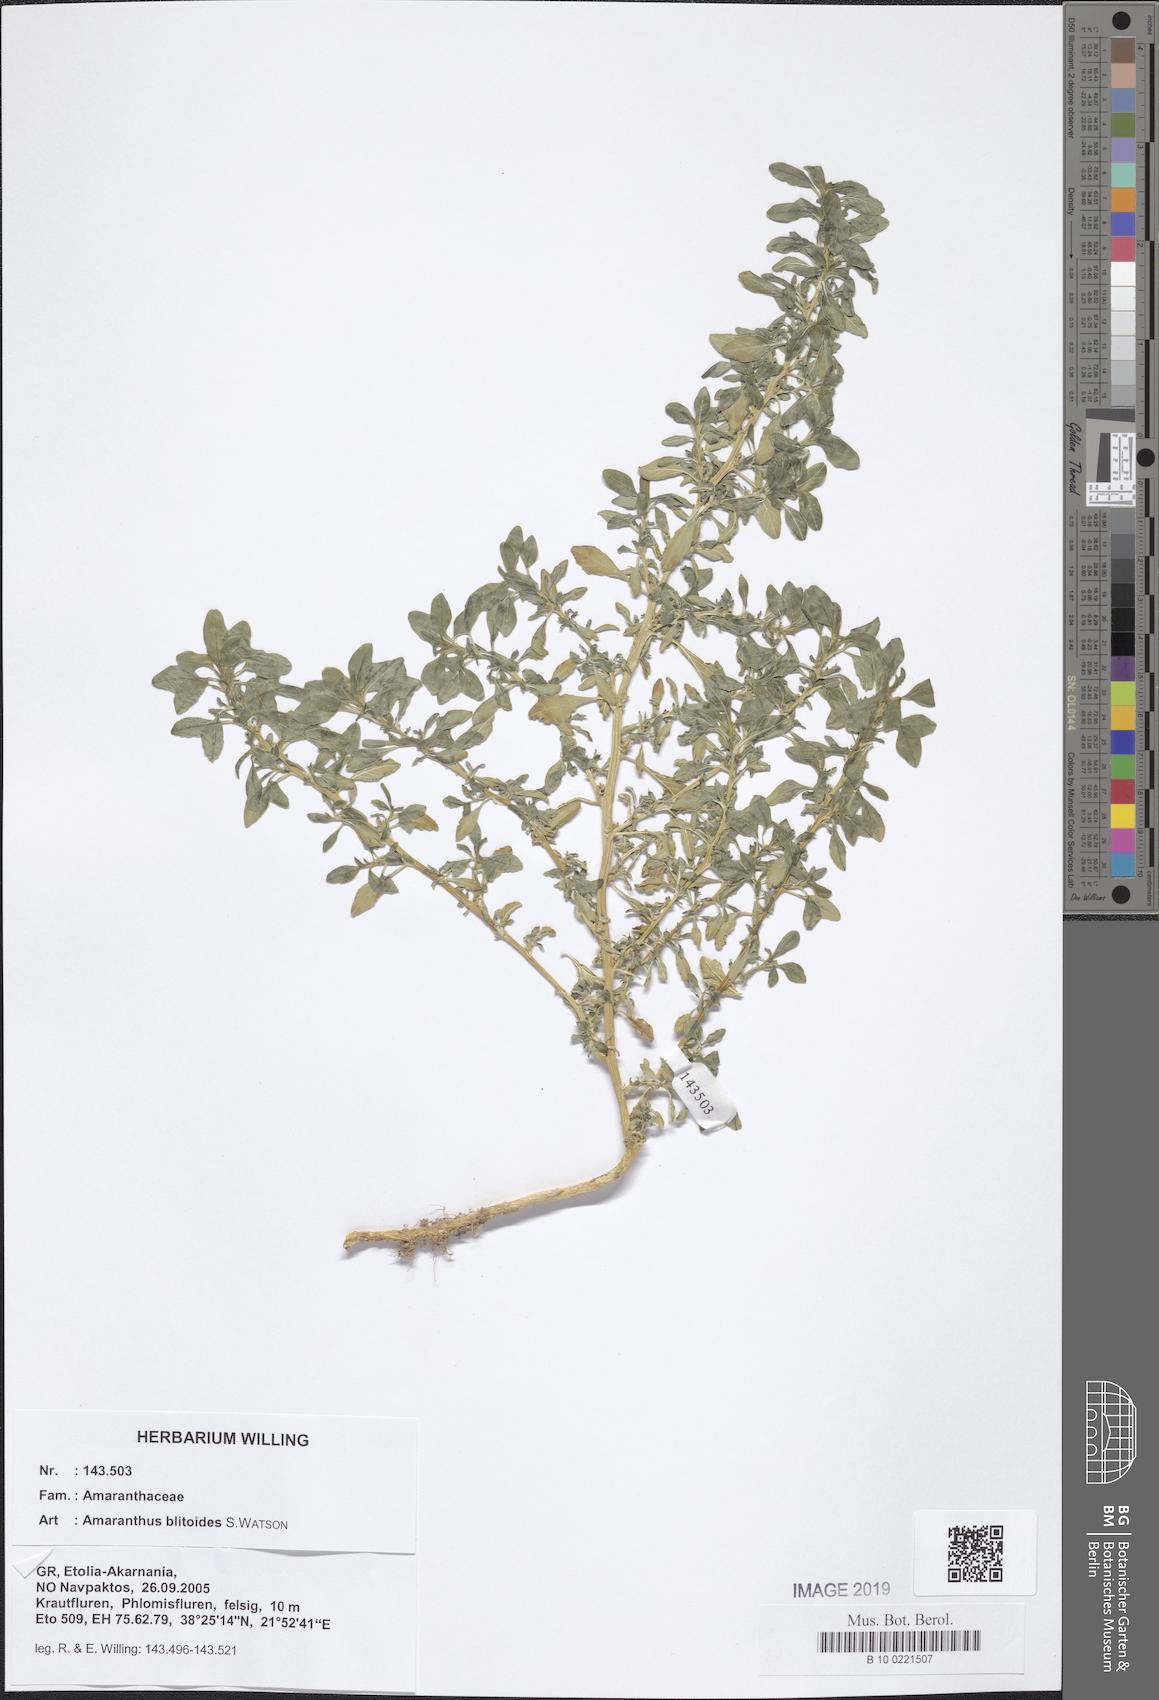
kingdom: Plantae
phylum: Tracheophyta
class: Magnoliopsida
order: Caryophyllales
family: Amaranthaceae
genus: Amaranthus
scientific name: Amaranthus blitoides
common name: Prostrate pigweed
